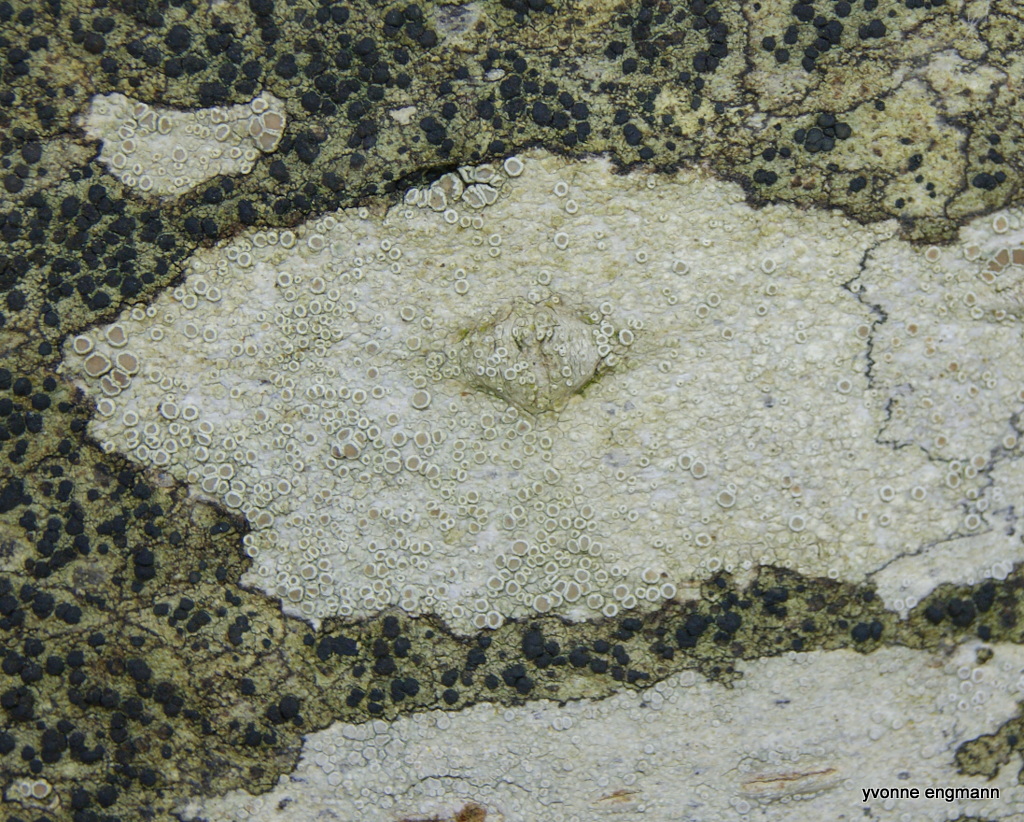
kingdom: Fungi
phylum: Ascomycota
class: Lecanoromycetes
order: Lecanorales
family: Lecanoraceae
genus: Lecanora
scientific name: Lecanora chlarotera
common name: brun kantskivelav
